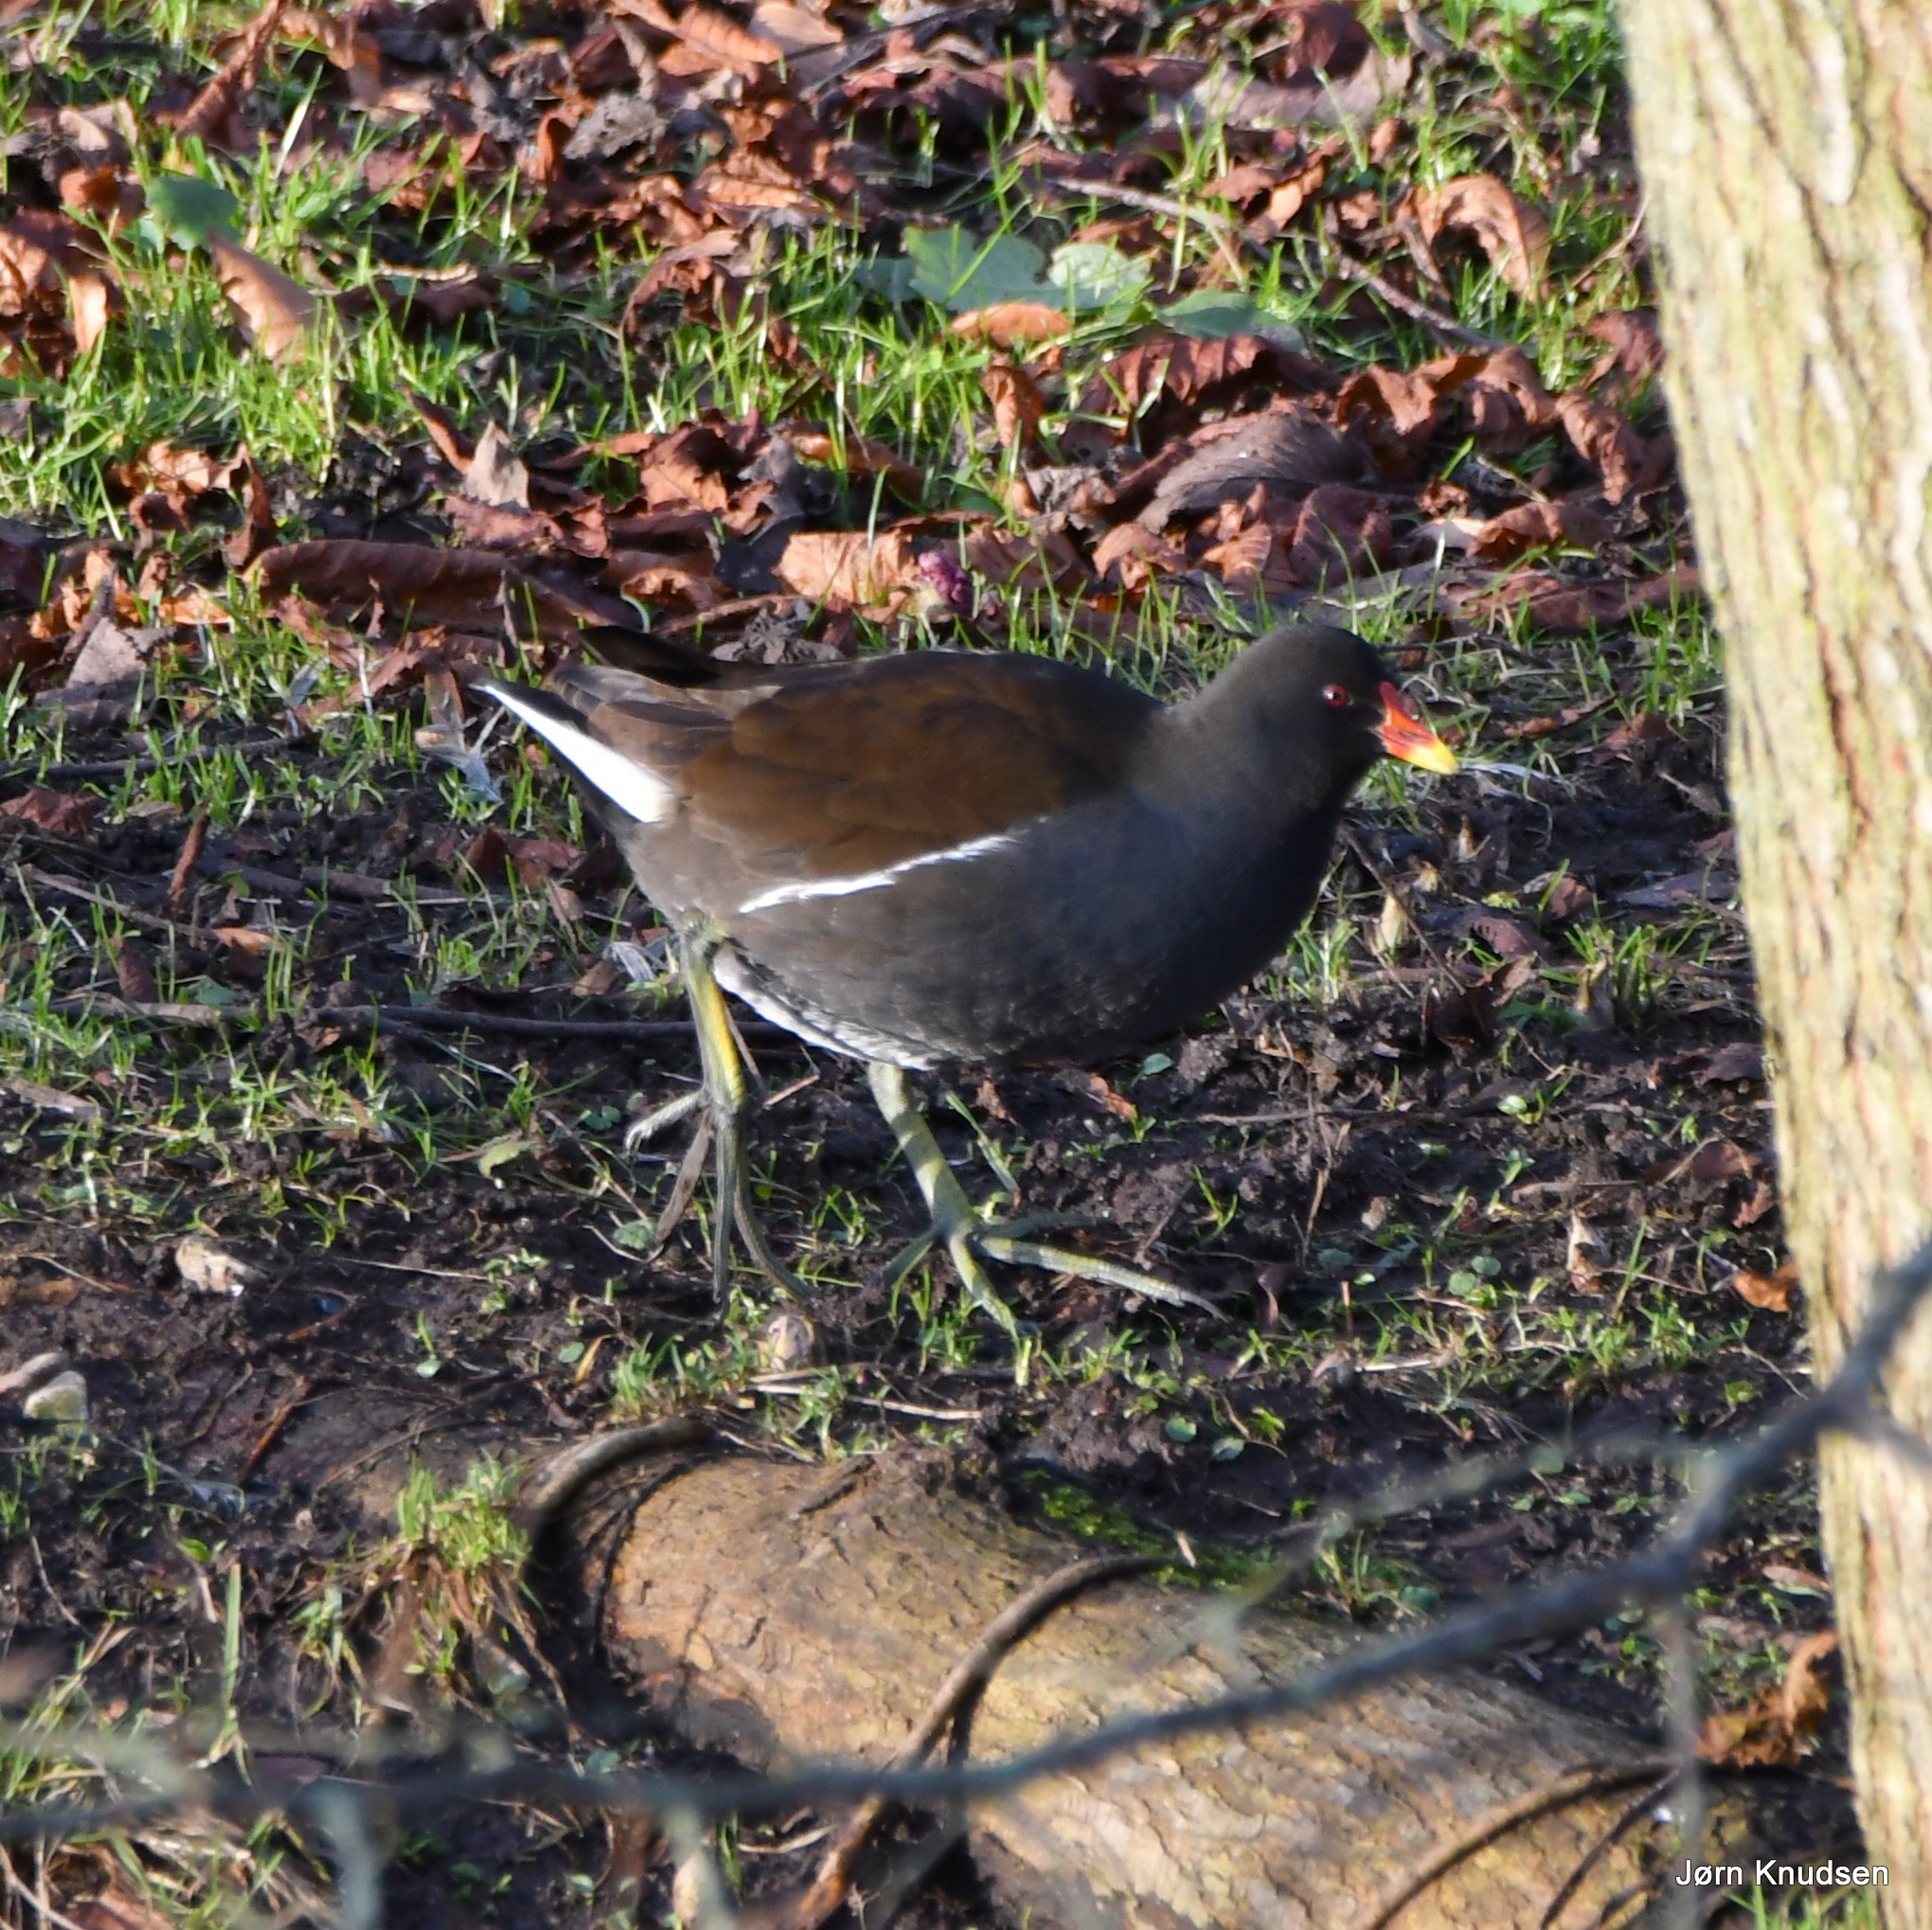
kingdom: Animalia
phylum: Chordata
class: Aves
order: Gruiformes
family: Rallidae
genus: Gallinula
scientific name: Gallinula chloropus
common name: Grønbenet rørhøne
